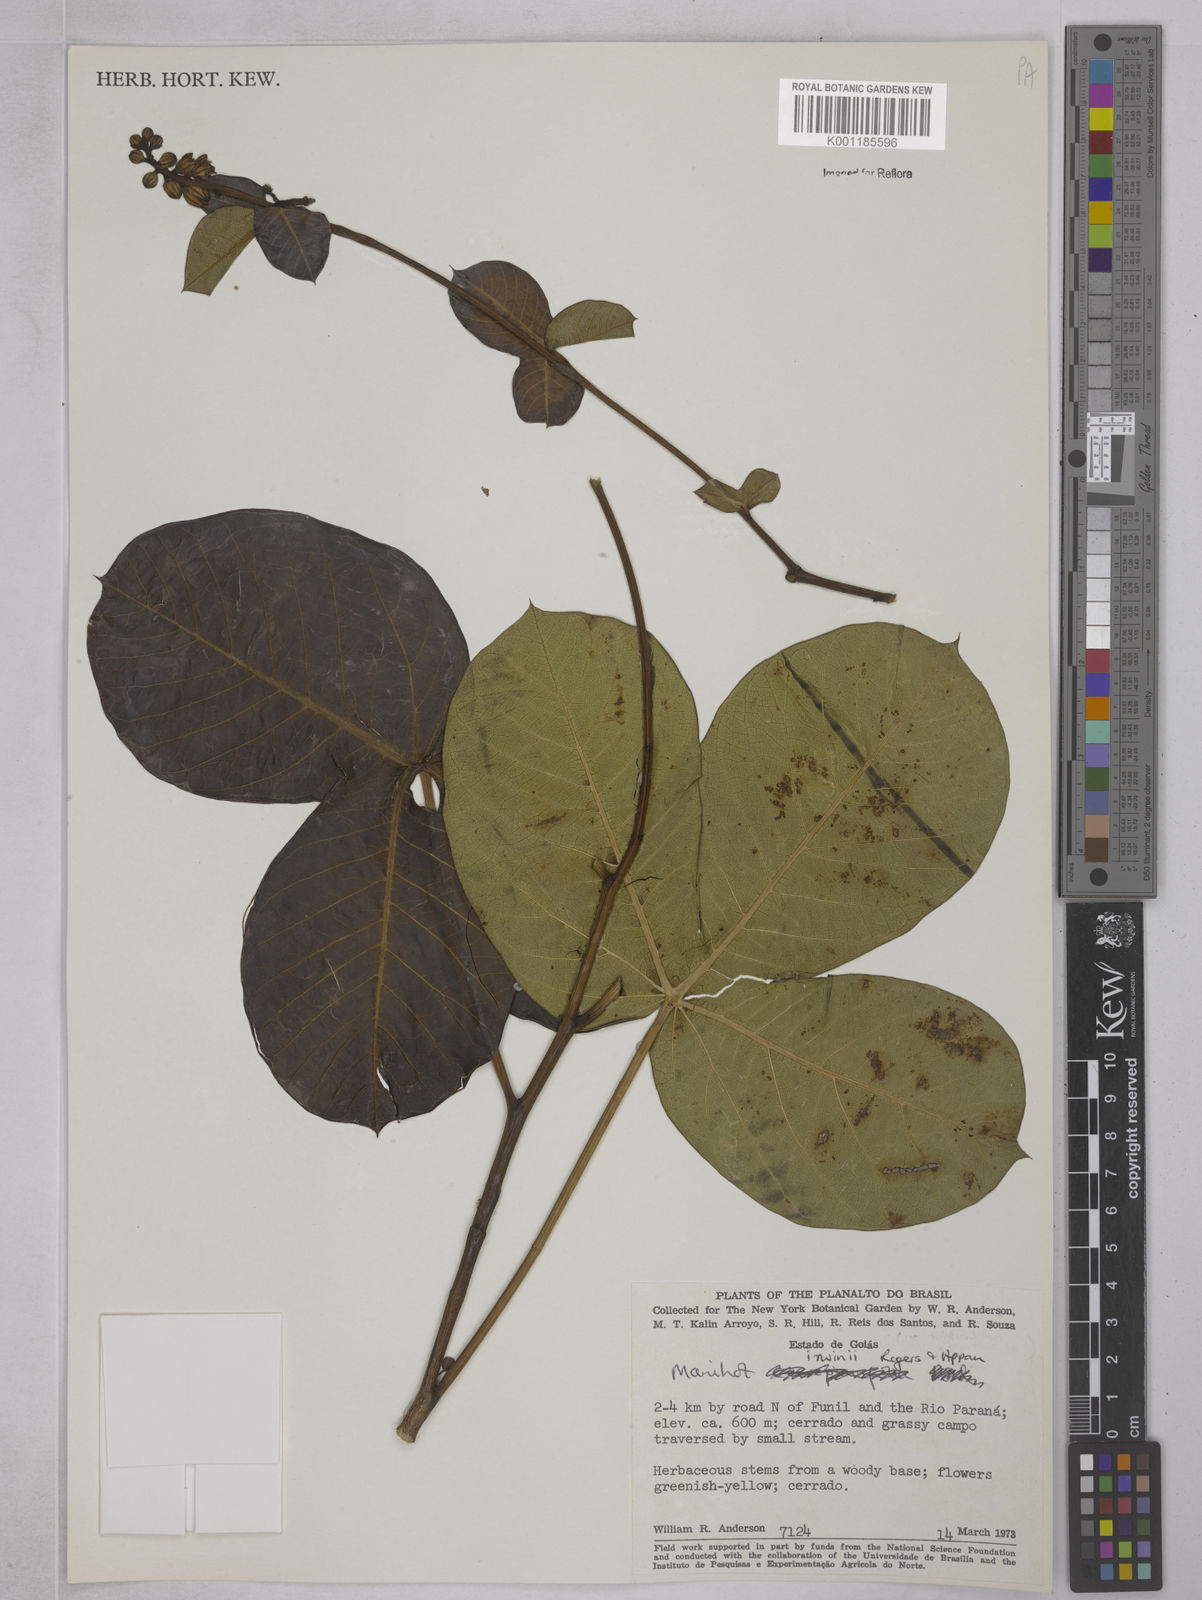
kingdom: Plantae
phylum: Tracheophyta
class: Magnoliopsida
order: Malpighiales
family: Euphorbiaceae
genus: Manihot
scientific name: Manihot irwinii
